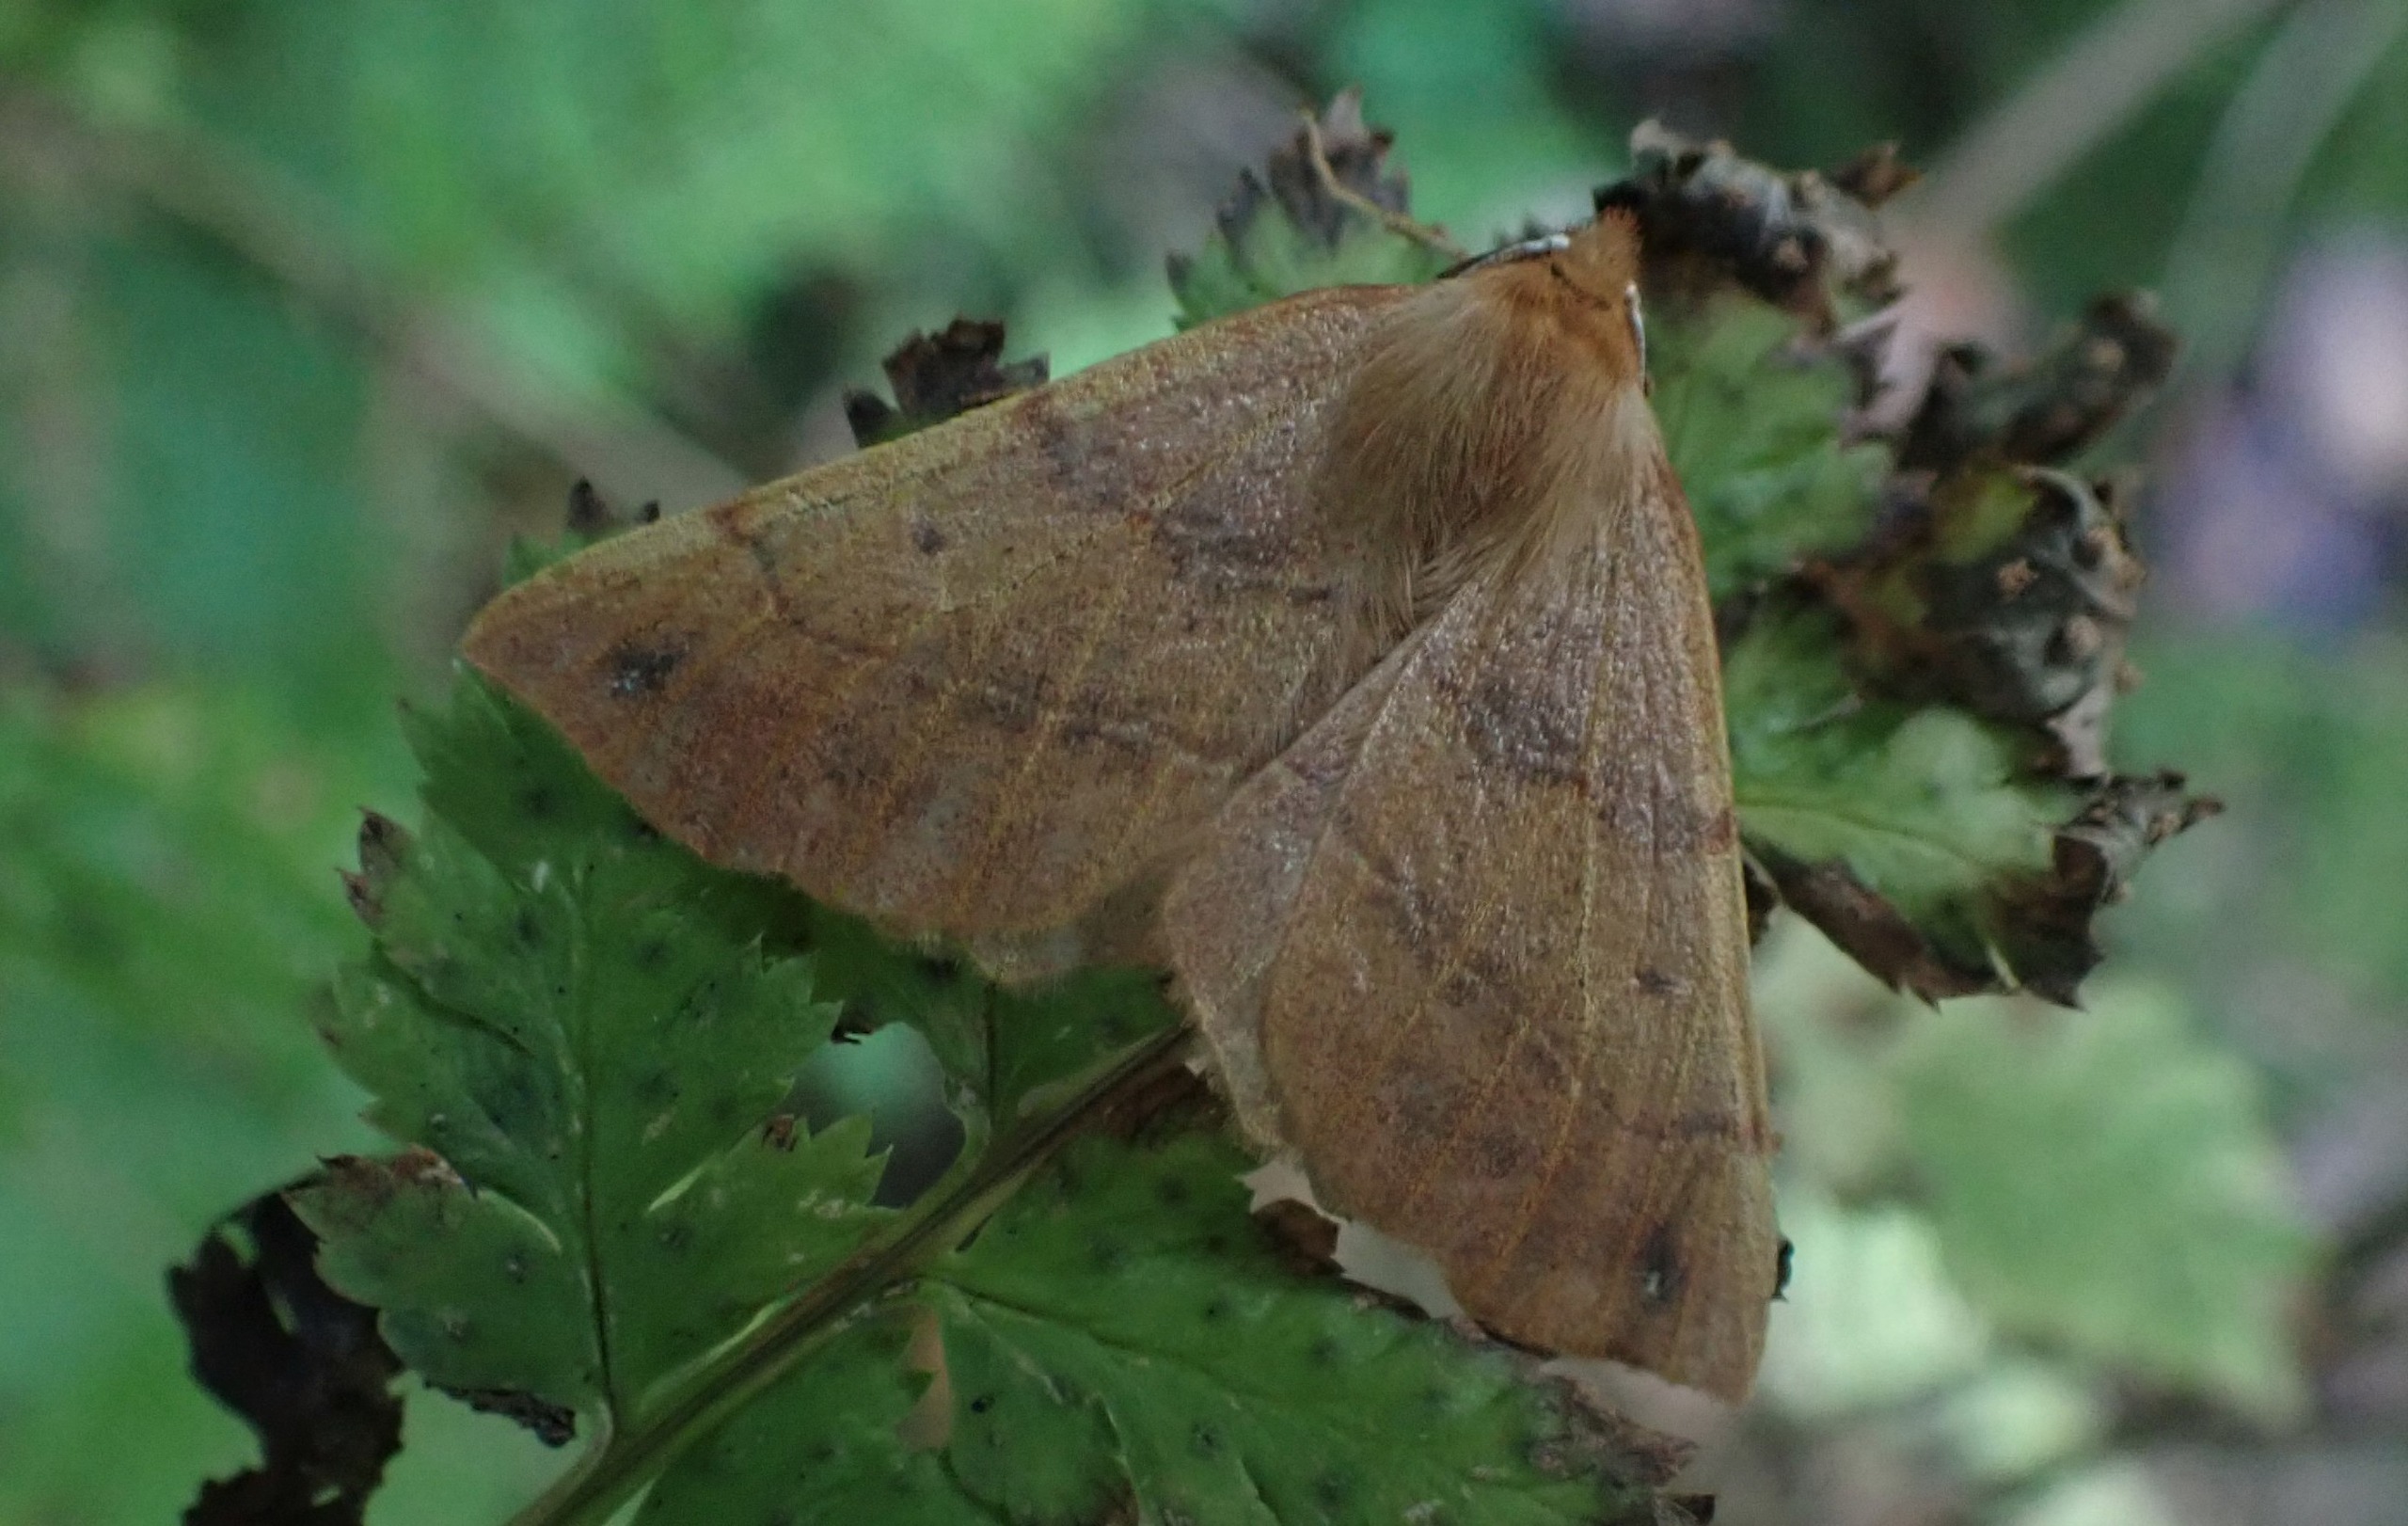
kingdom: Animalia
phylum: Arthropoda
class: Insecta
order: Lepidoptera
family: Geometridae
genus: Colotois
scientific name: Colotois pennaria
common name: Løvfaldsmåler
